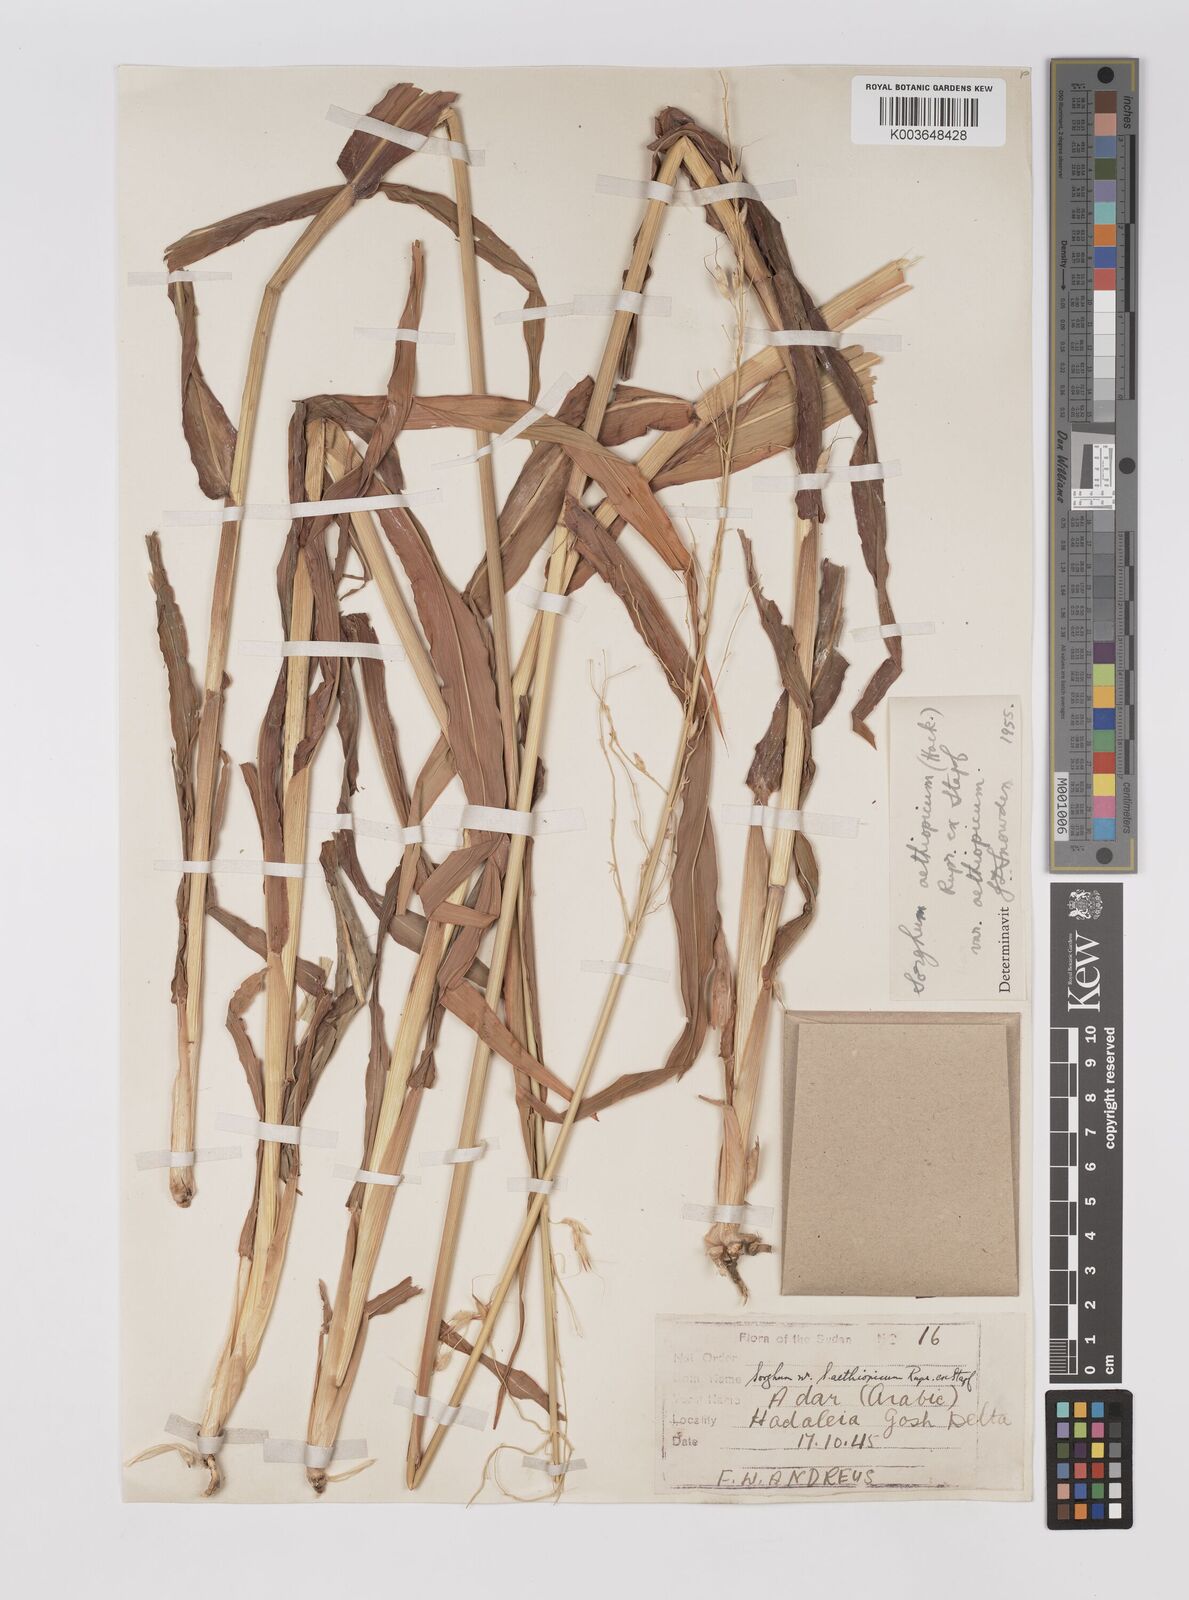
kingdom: Plantae
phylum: Tracheophyta
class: Liliopsida
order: Poales
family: Poaceae
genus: Sorghum
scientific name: Sorghum arundinaceum
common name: Sorghum
